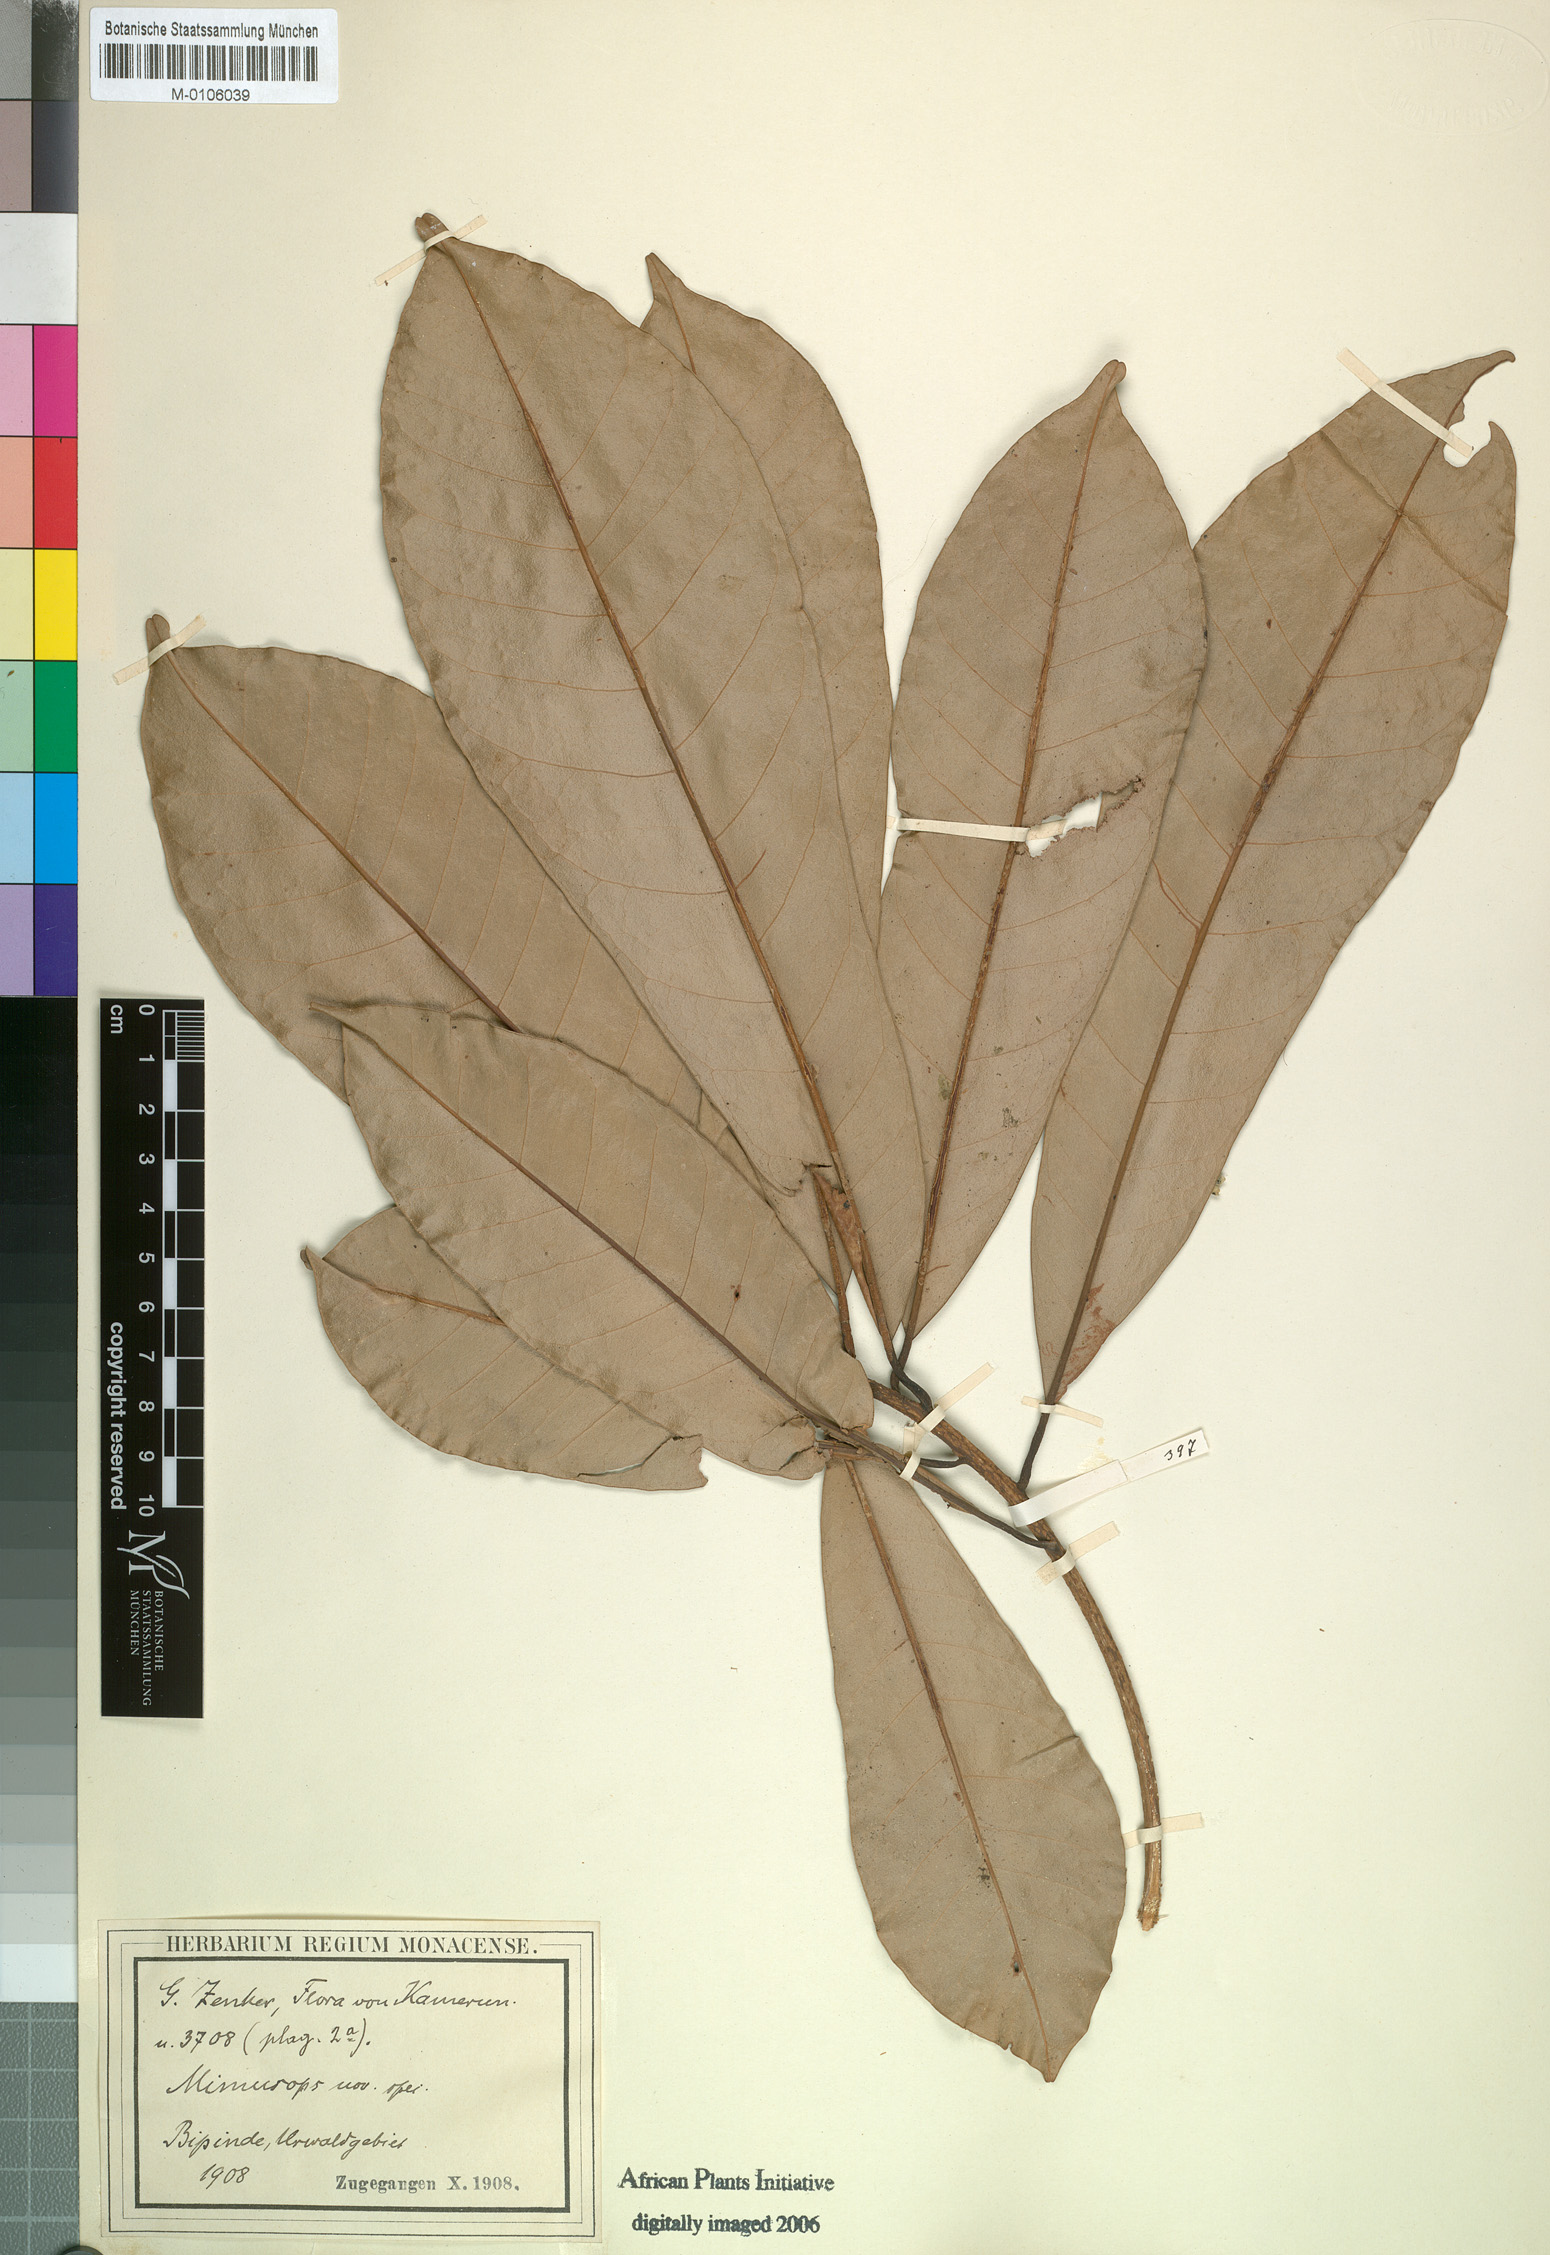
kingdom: Plantae
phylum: Tracheophyta
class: Magnoliopsida
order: Ericales
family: Sapotaceae
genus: Manilkara
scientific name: Manilkara zenkeri
